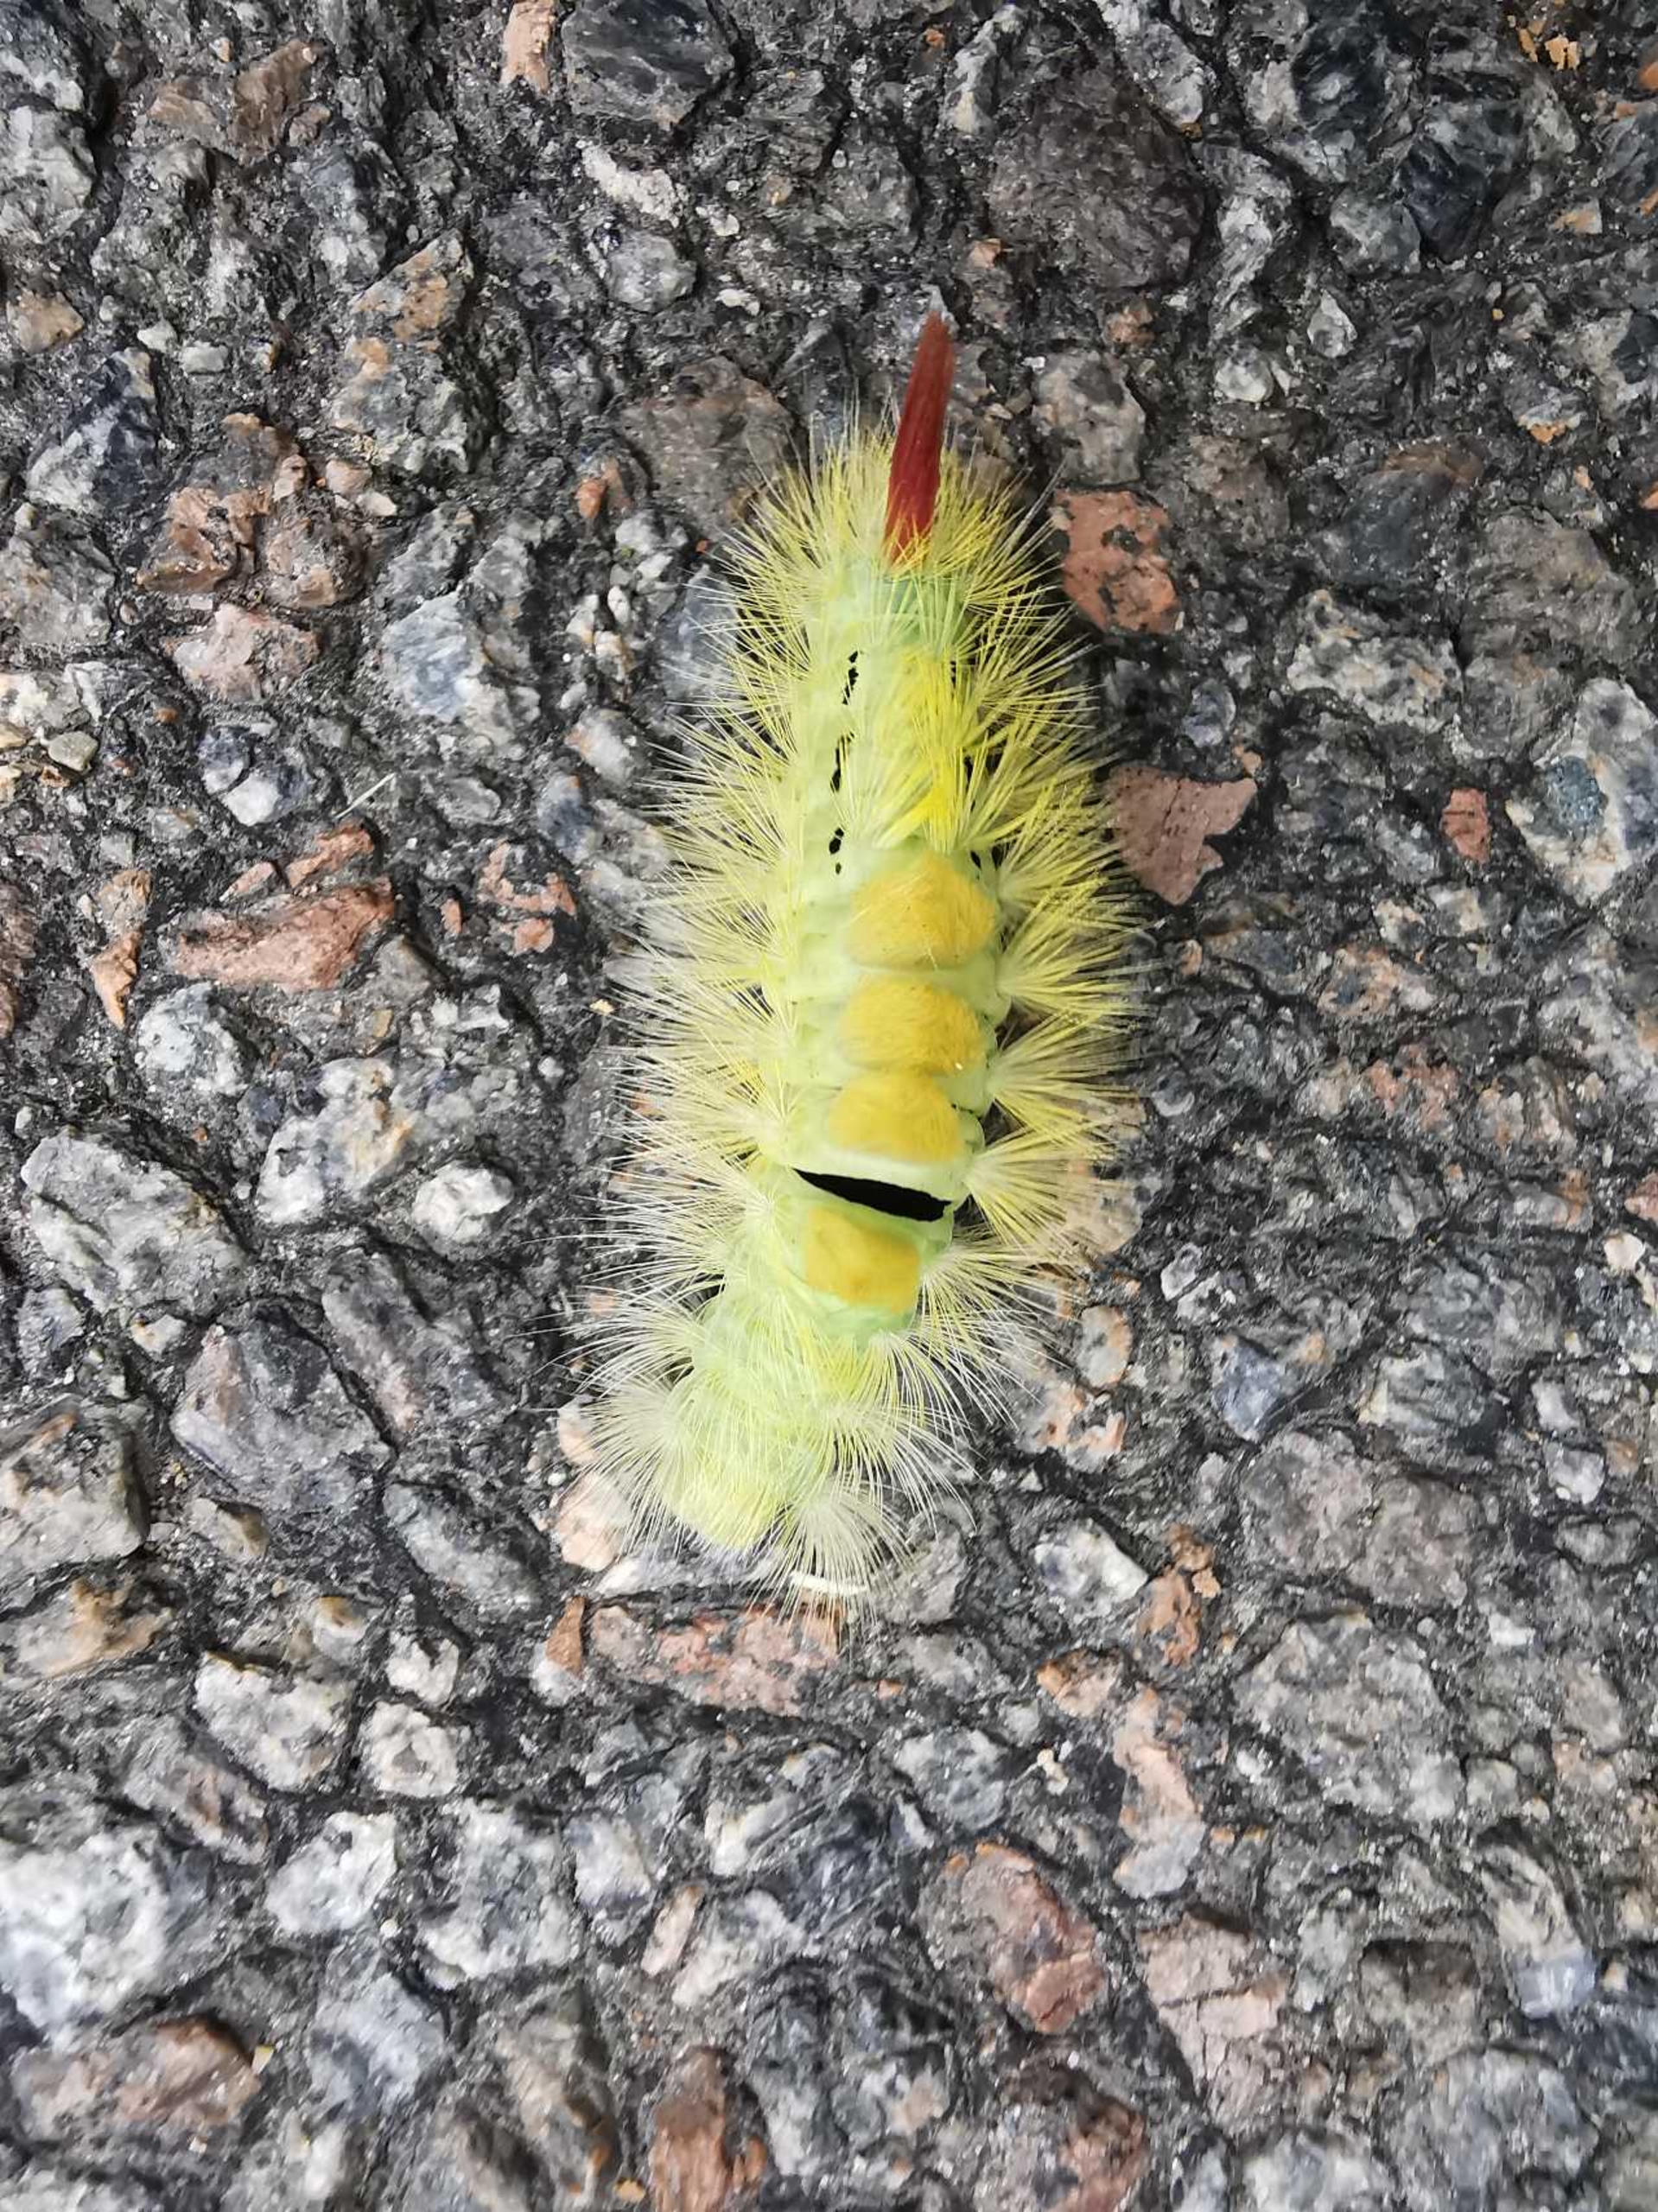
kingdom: Animalia
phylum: Arthropoda
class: Insecta
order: Lepidoptera
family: Erebidae
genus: Calliteara
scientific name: Calliteara pudibunda
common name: Bøgenonne
